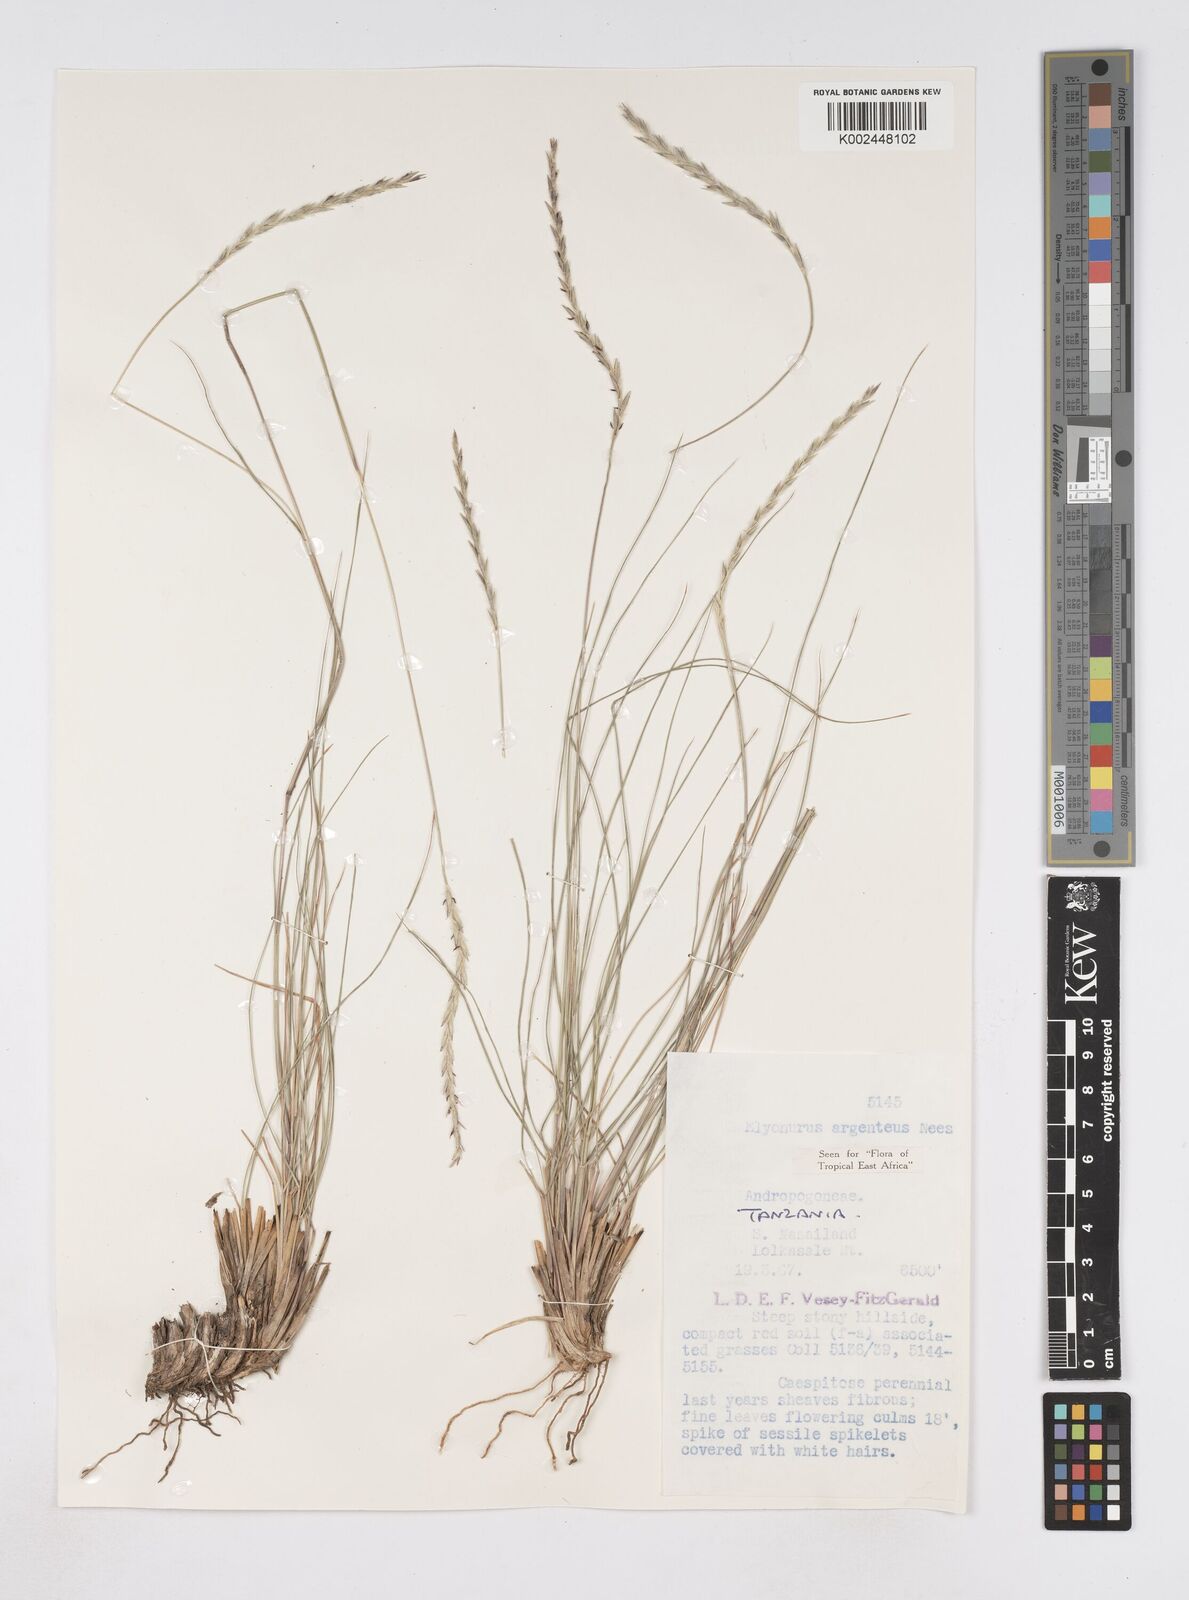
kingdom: Plantae
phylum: Tracheophyta
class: Liliopsida
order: Poales
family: Poaceae
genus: Elionurus
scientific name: Elionurus muticus
